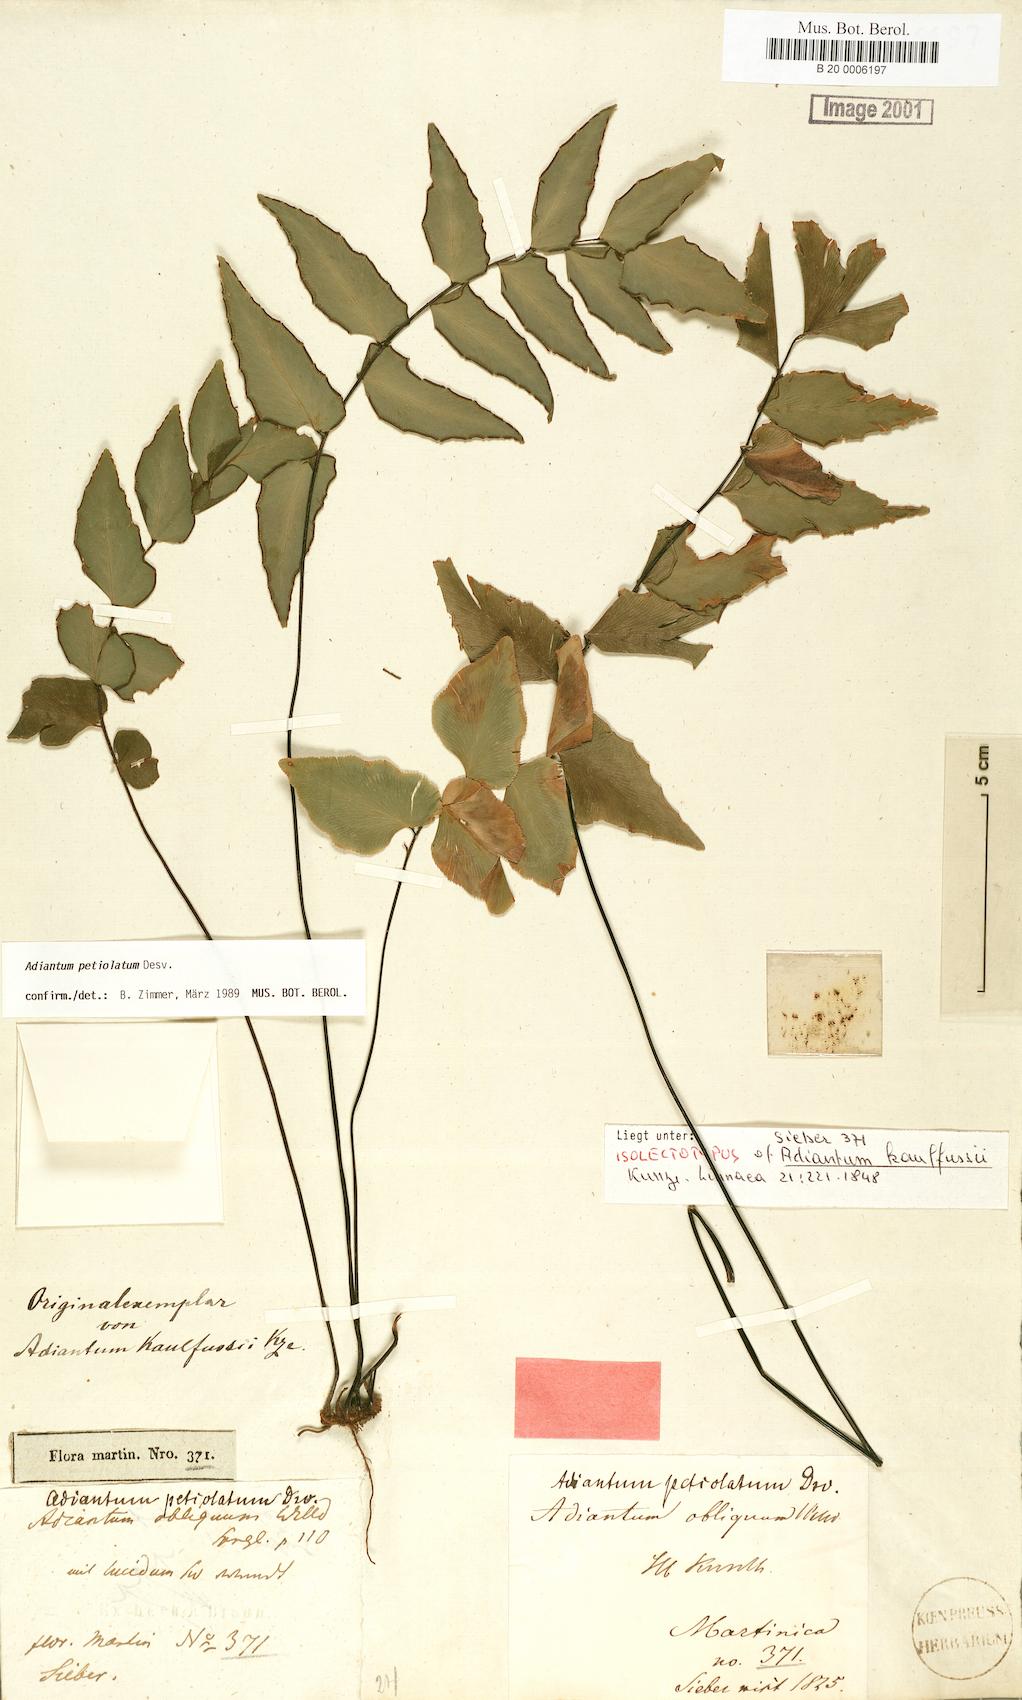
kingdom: Plantae
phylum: Tracheophyta
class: Polypodiopsida
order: Polypodiales
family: Pteridaceae
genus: Adiantum
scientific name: Adiantum petiolatum
